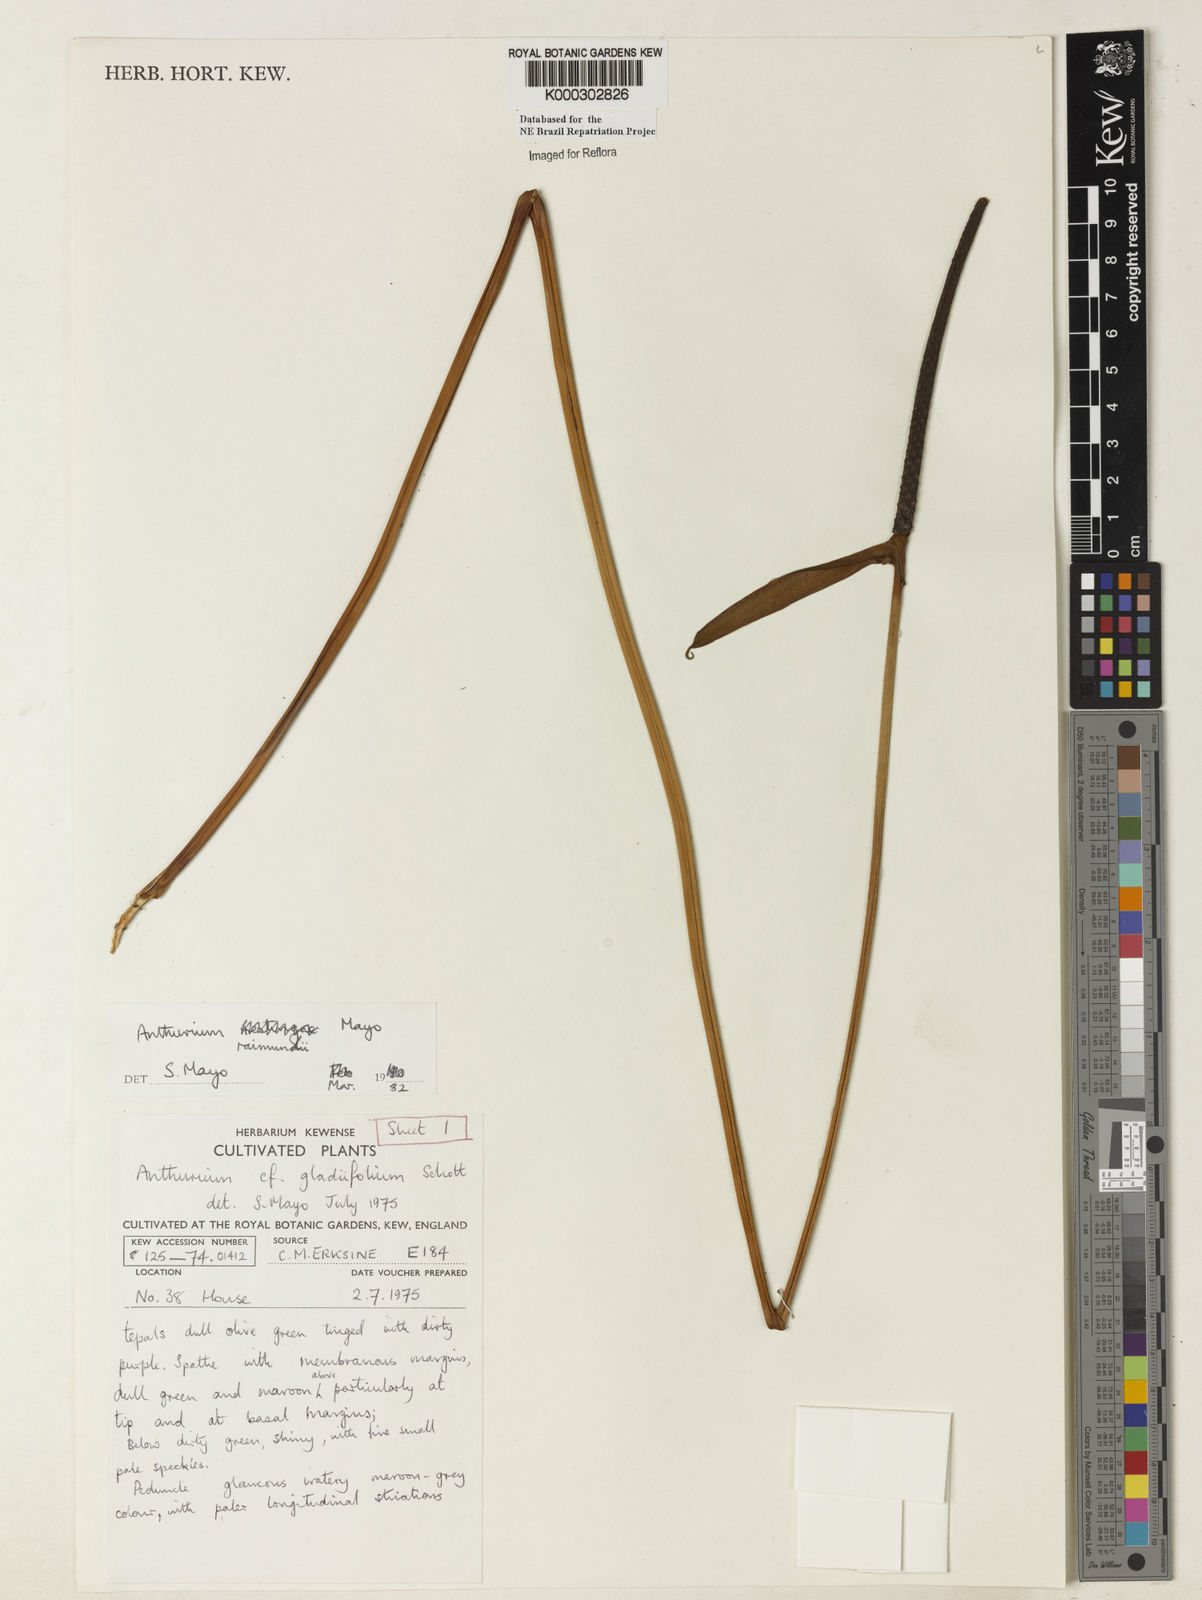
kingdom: Plantae
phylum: Tracheophyta
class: Liliopsida
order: Alismatales
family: Araceae
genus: Anthurium
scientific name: Anthurium raimundii
